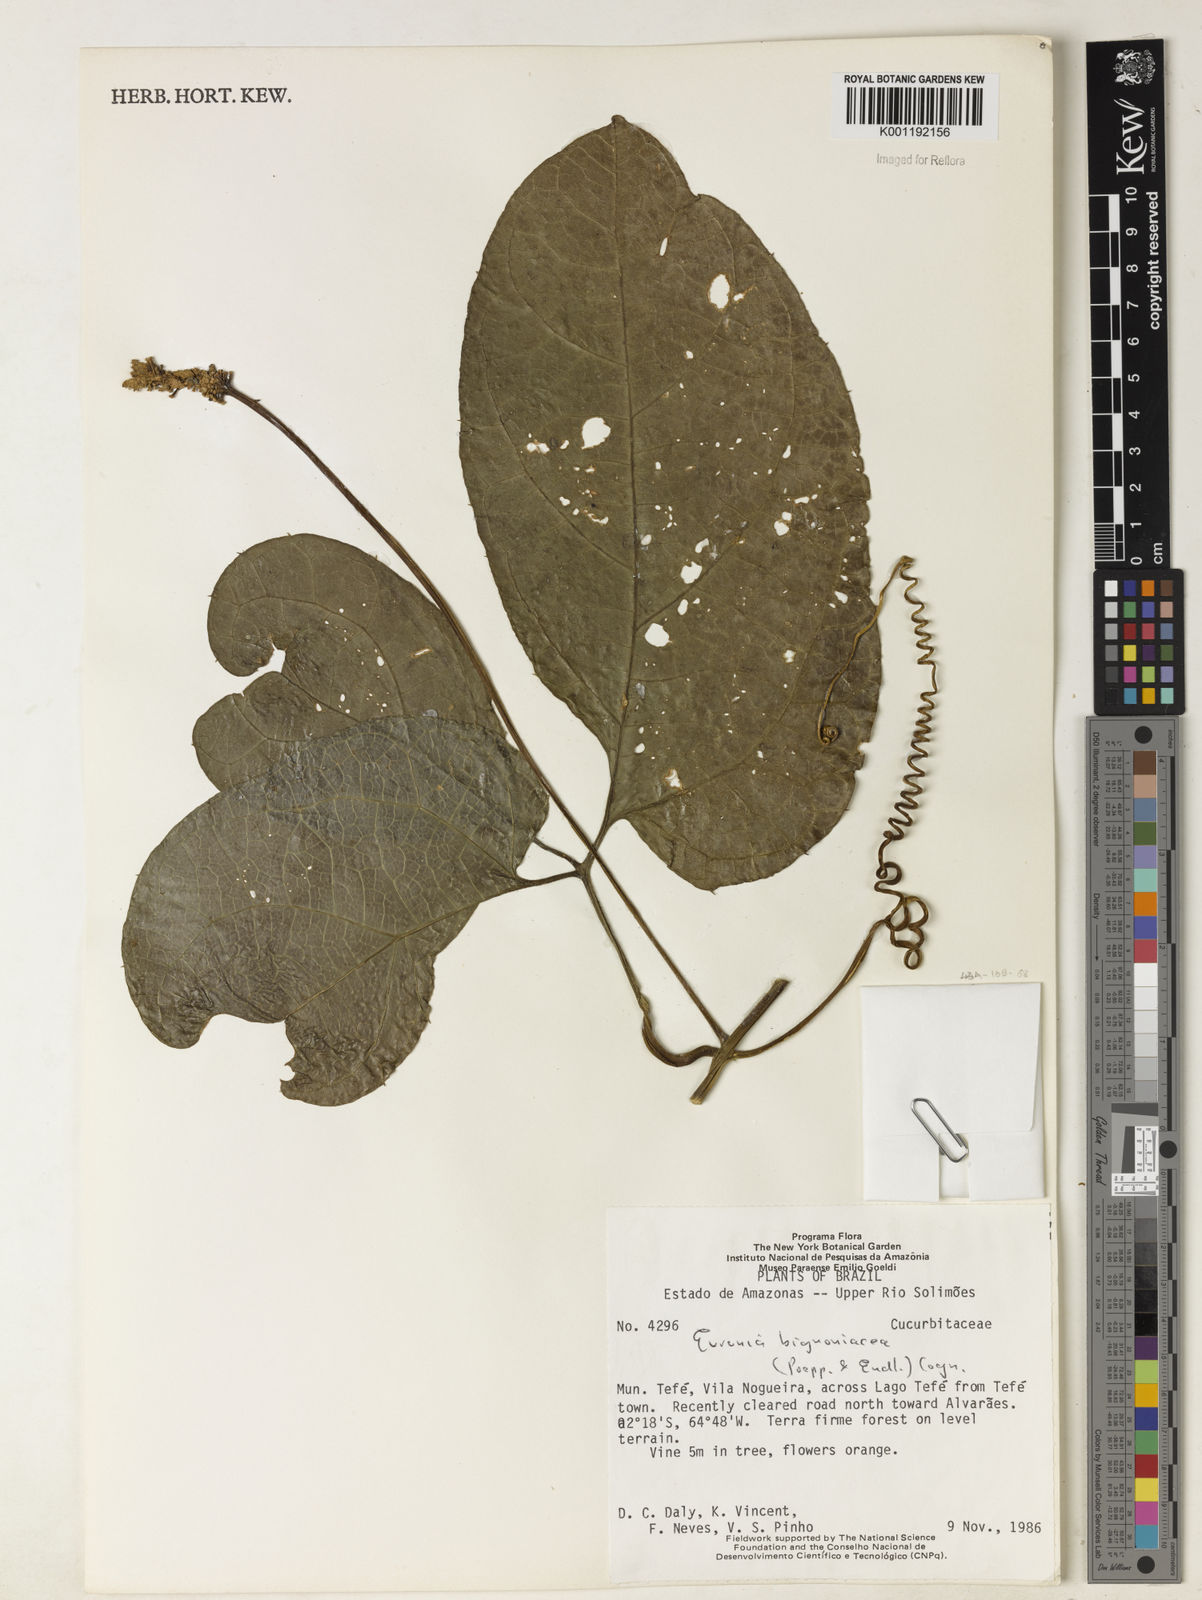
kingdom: Plantae
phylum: Tracheophyta
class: Magnoliopsida
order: Cucurbitales
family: Cucurbitaceae
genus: Gurania
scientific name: Gurania bignoniacea
